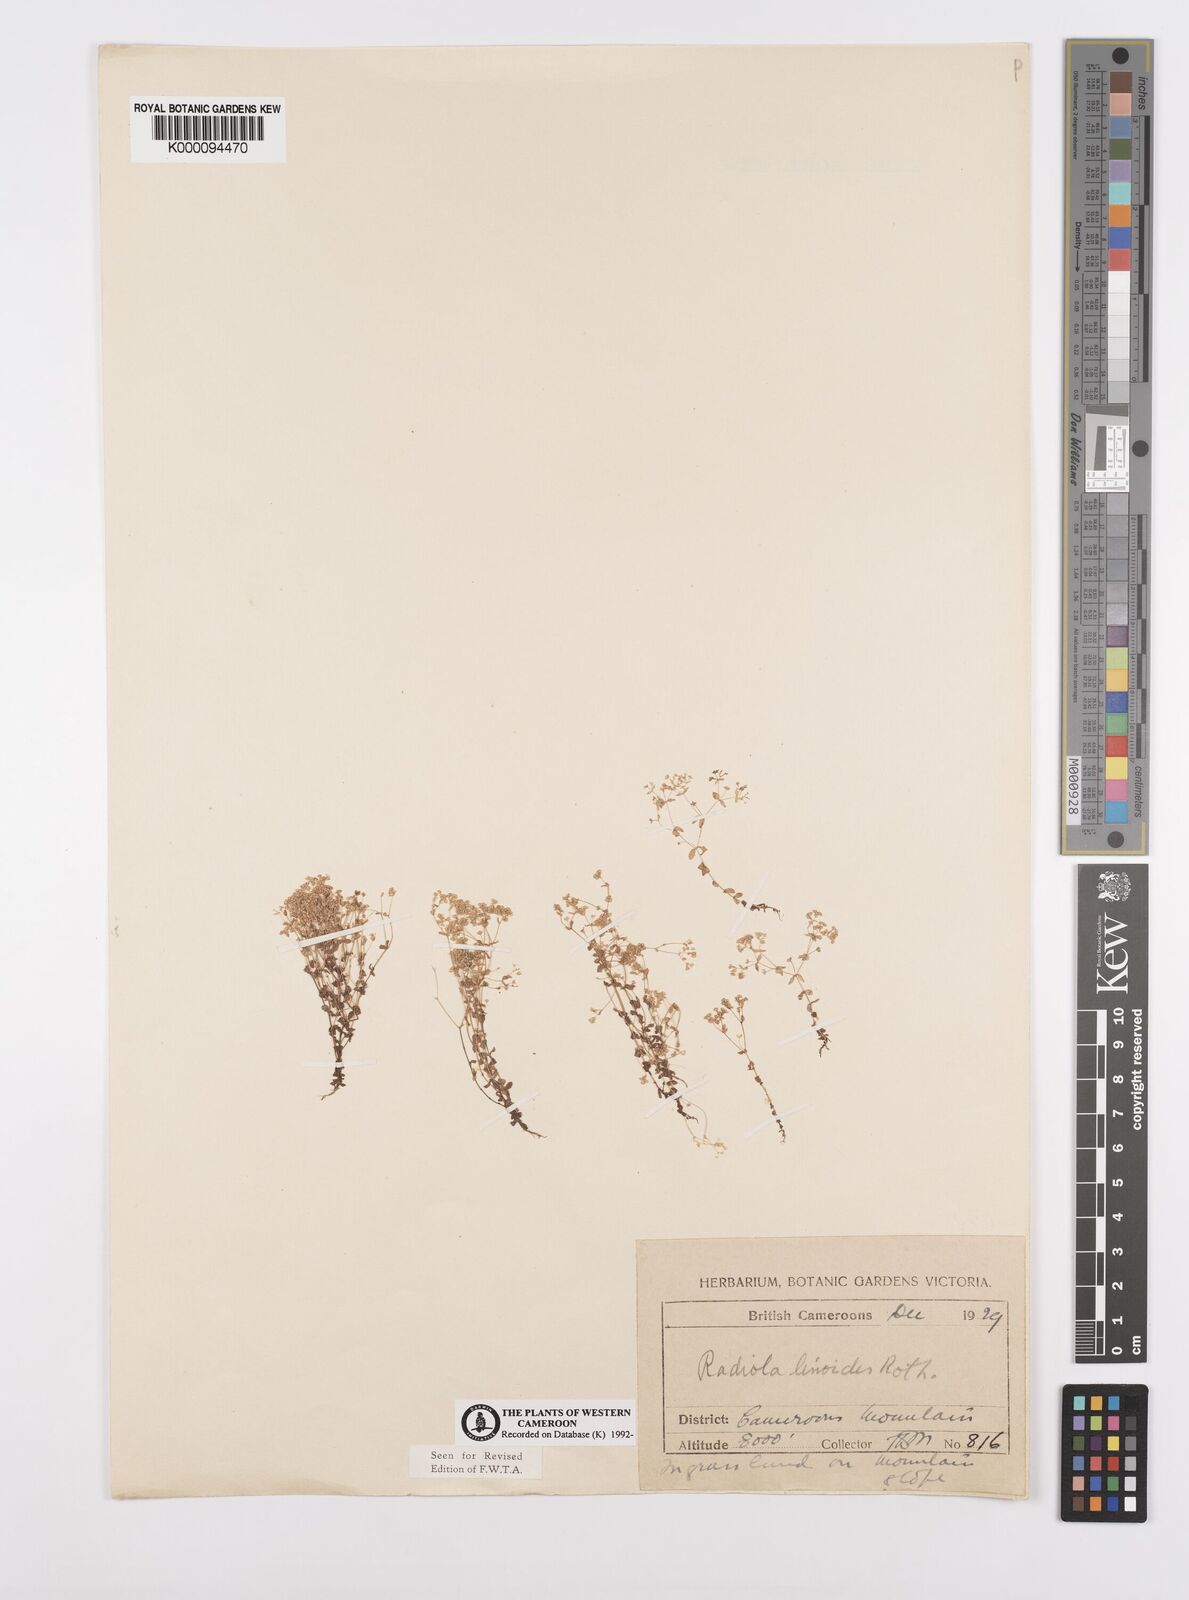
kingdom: Plantae
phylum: Tracheophyta
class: Magnoliopsida
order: Malpighiales
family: Linaceae
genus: Radiola
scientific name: Radiola linoides
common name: Allseed
